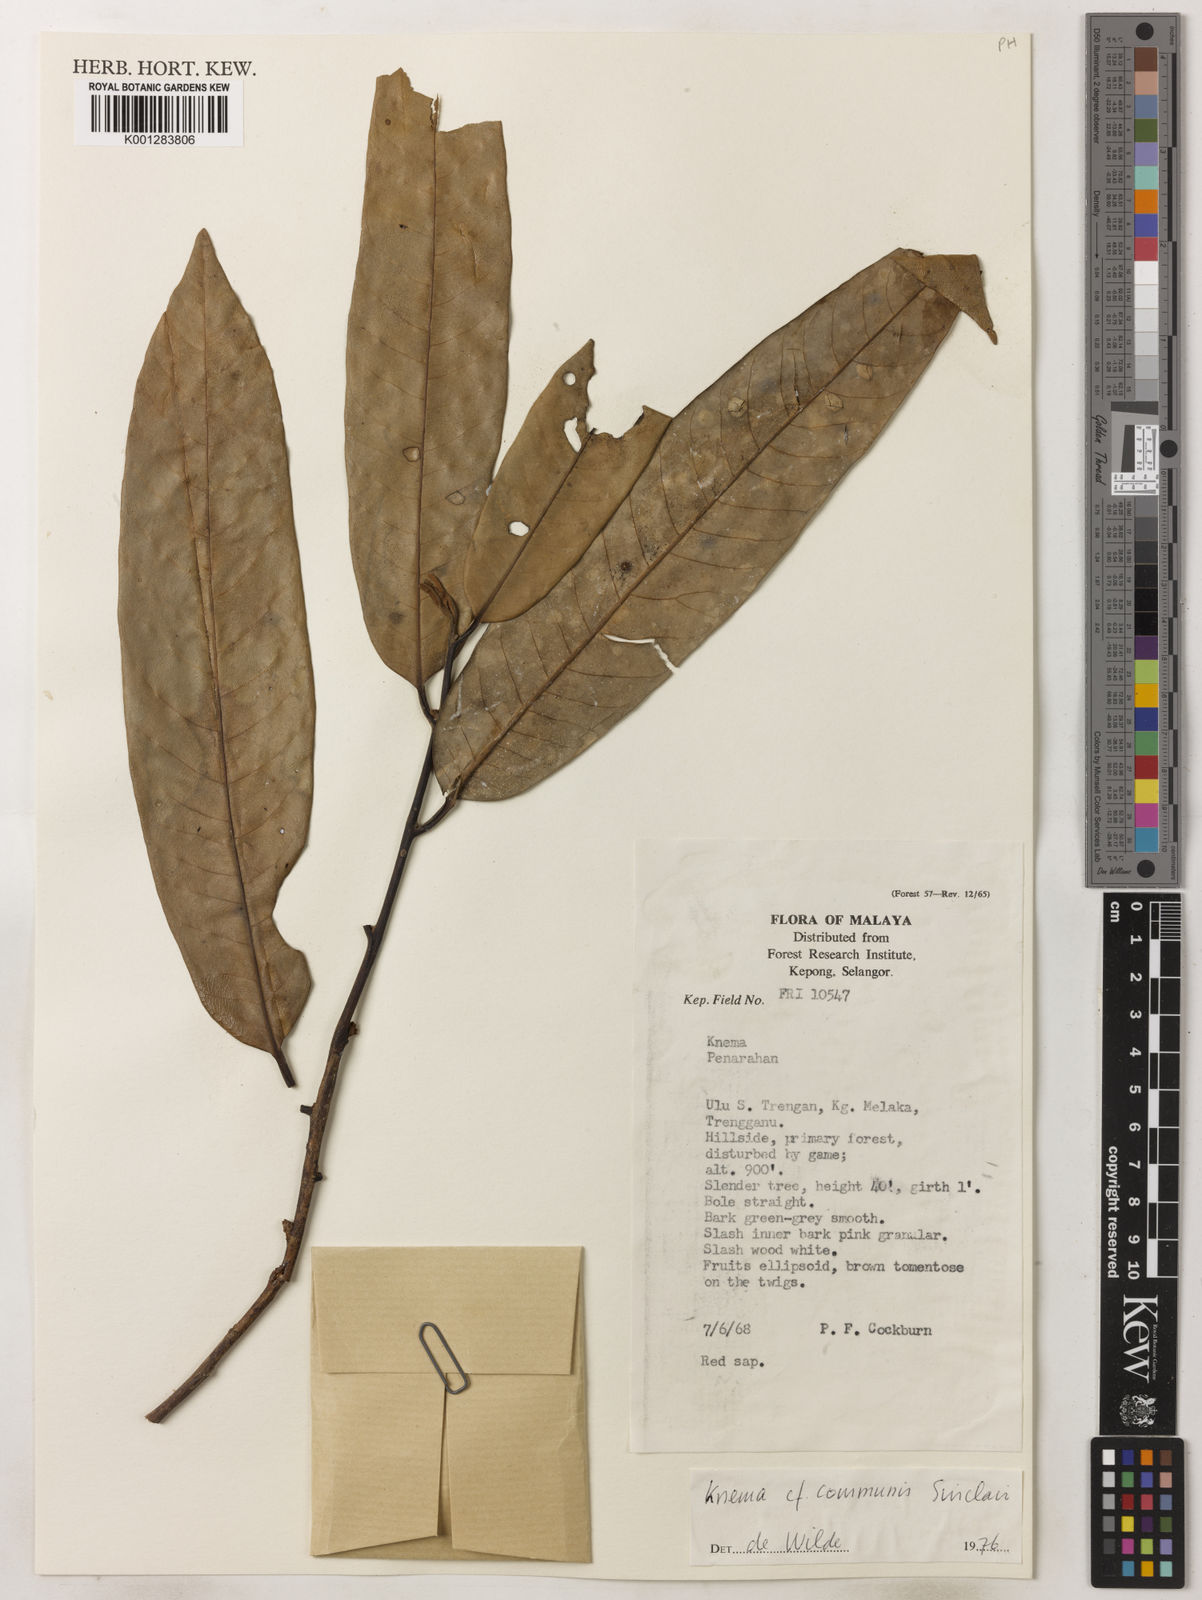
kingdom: Plantae
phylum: Tracheophyta
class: Magnoliopsida
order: Magnoliales
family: Myristicaceae
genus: Knema
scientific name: Knema communis
